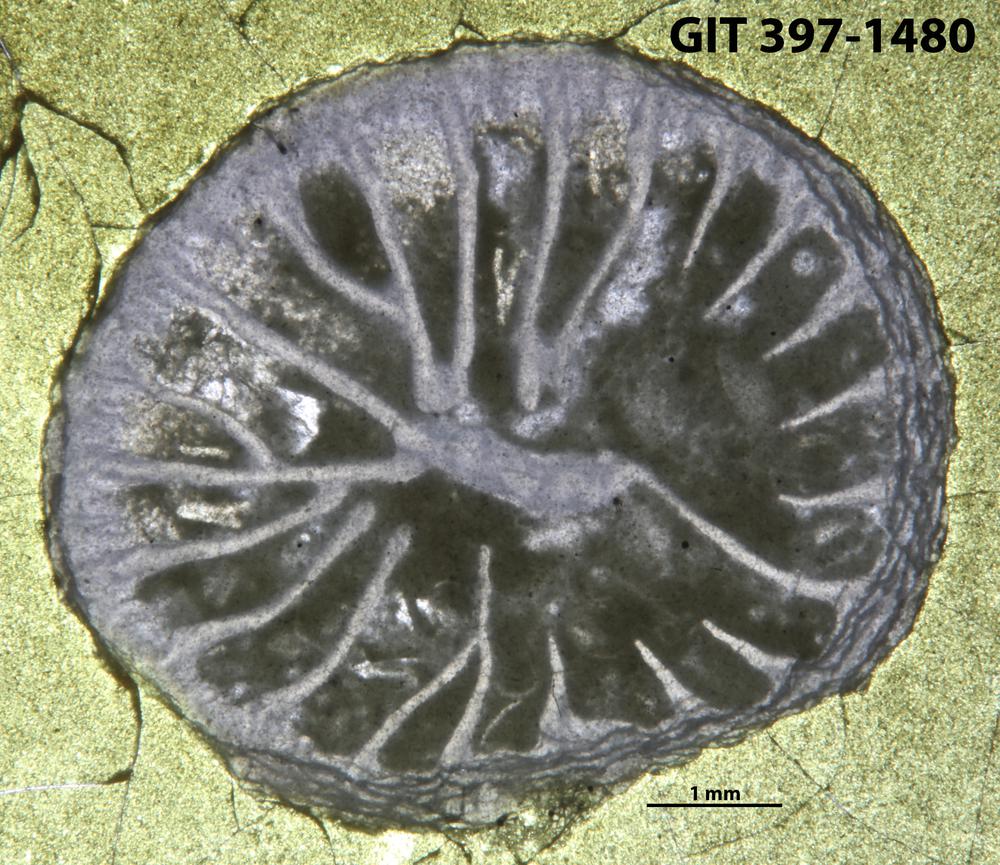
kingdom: Animalia
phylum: Cnidaria
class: Anthozoa
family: Streptelasmatidae
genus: Dalmanophyllum
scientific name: Dalmanophyllum
